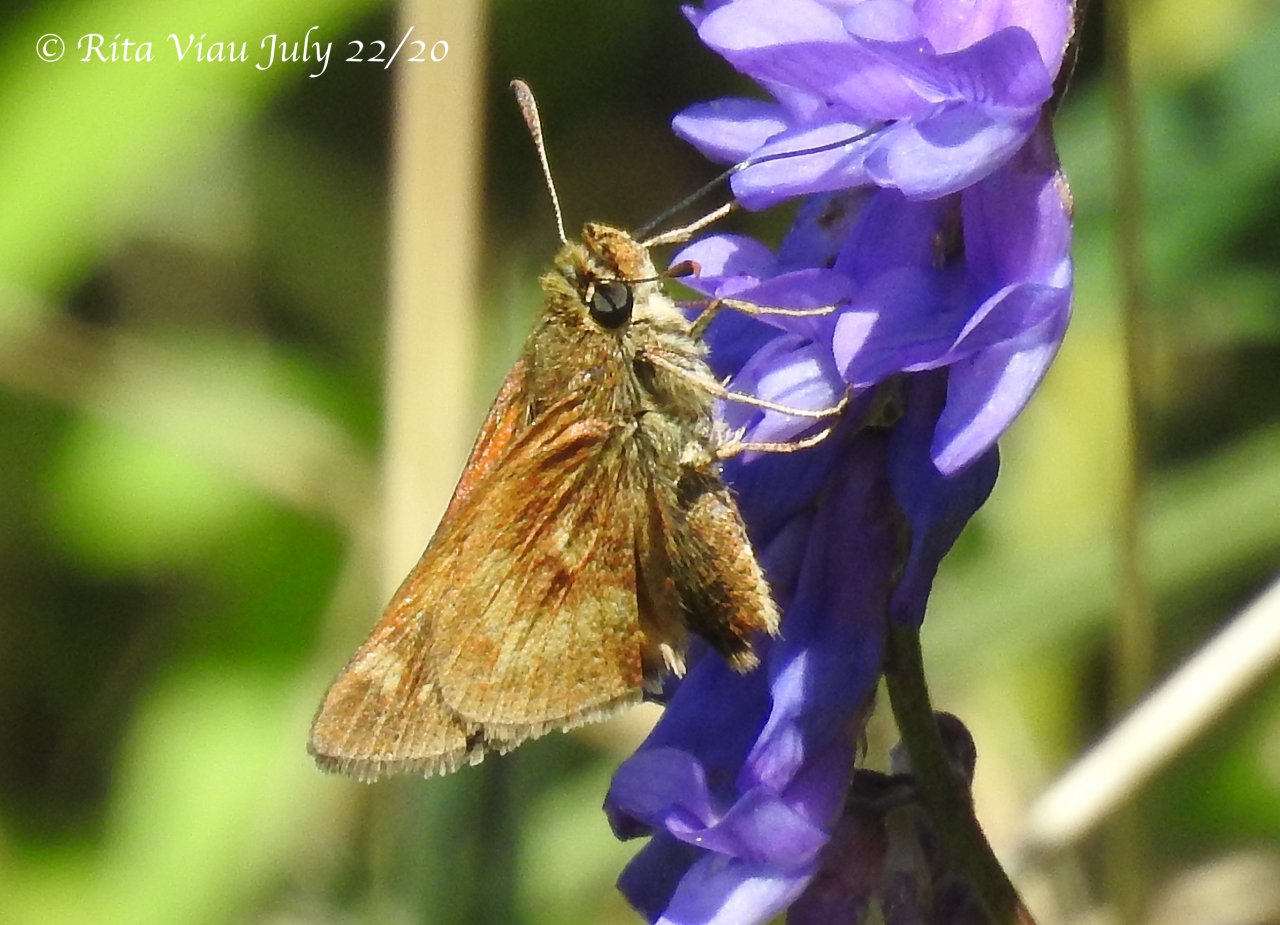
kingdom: Animalia
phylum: Arthropoda
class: Insecta
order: Lepidoptera
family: Hesperiidae
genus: Polites
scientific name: Polites
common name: Long Dash Skipper
